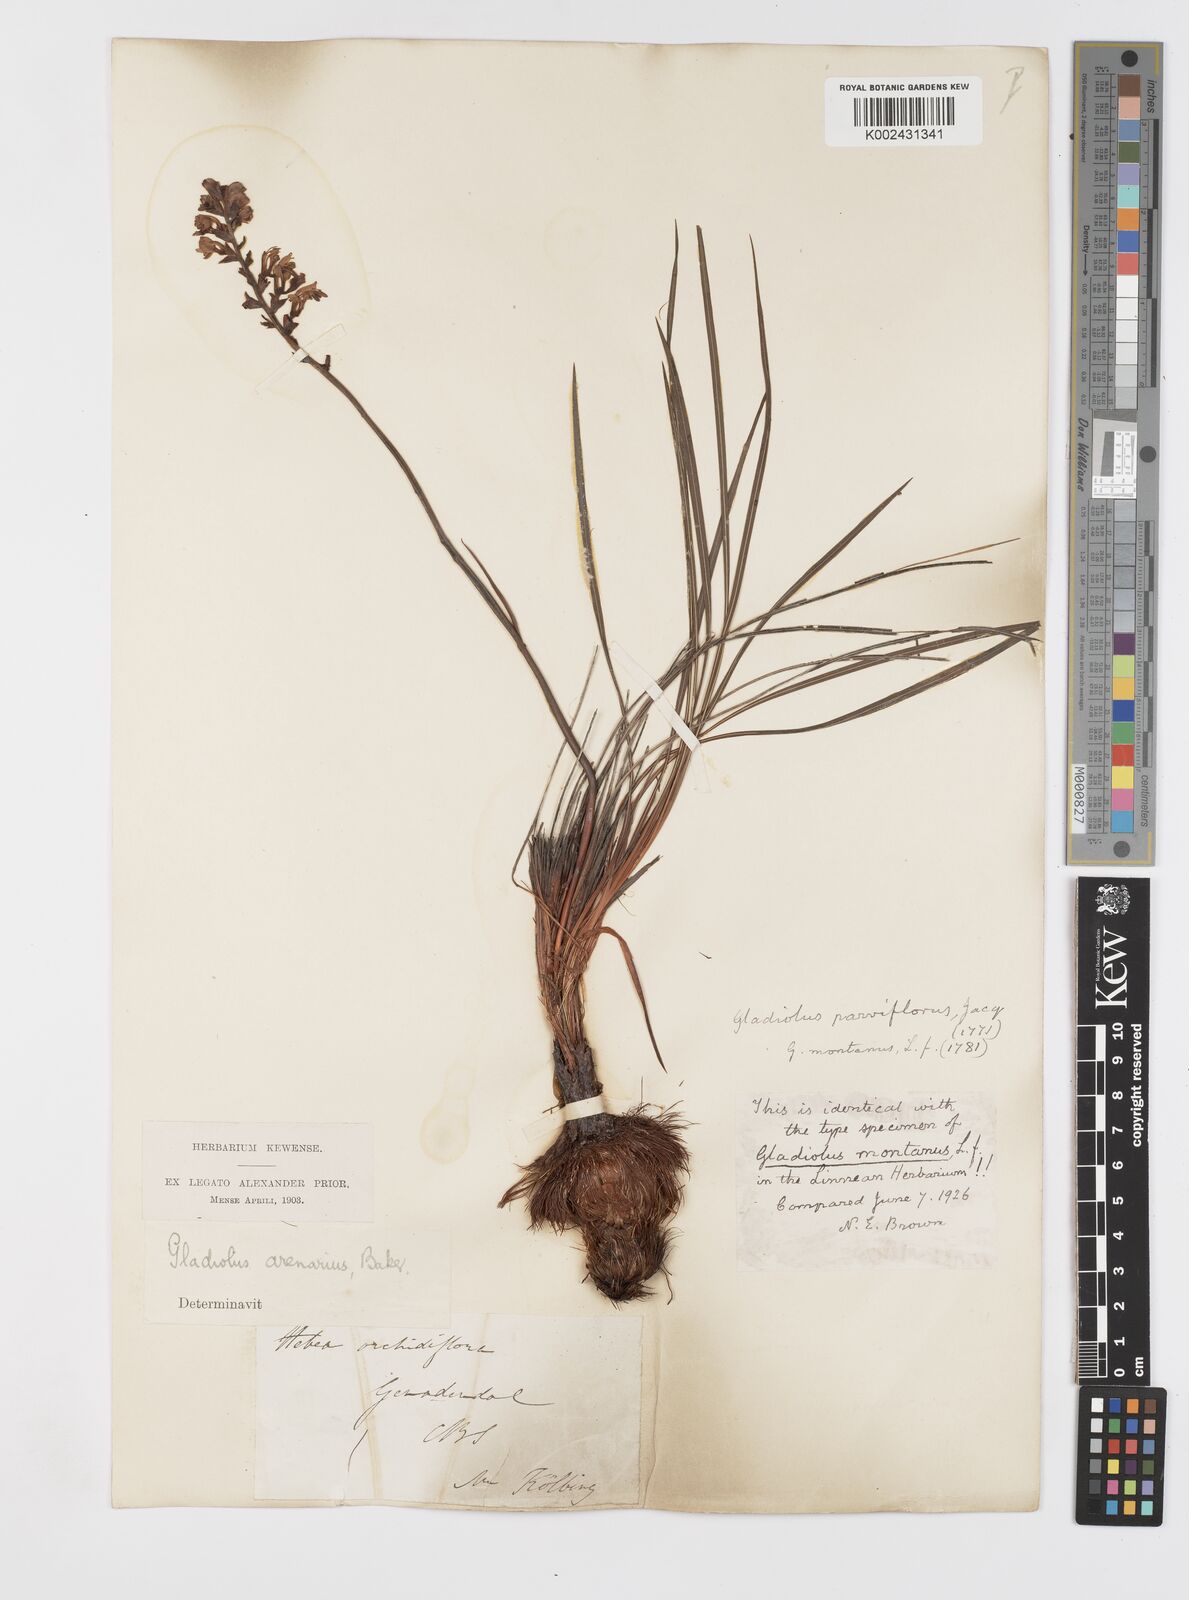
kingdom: Plantae
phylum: Tracheophyta
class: Liliopsida
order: Asparagales
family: Iridaceae
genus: Tritoniopsis
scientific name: Tritoniopsis parviflora
